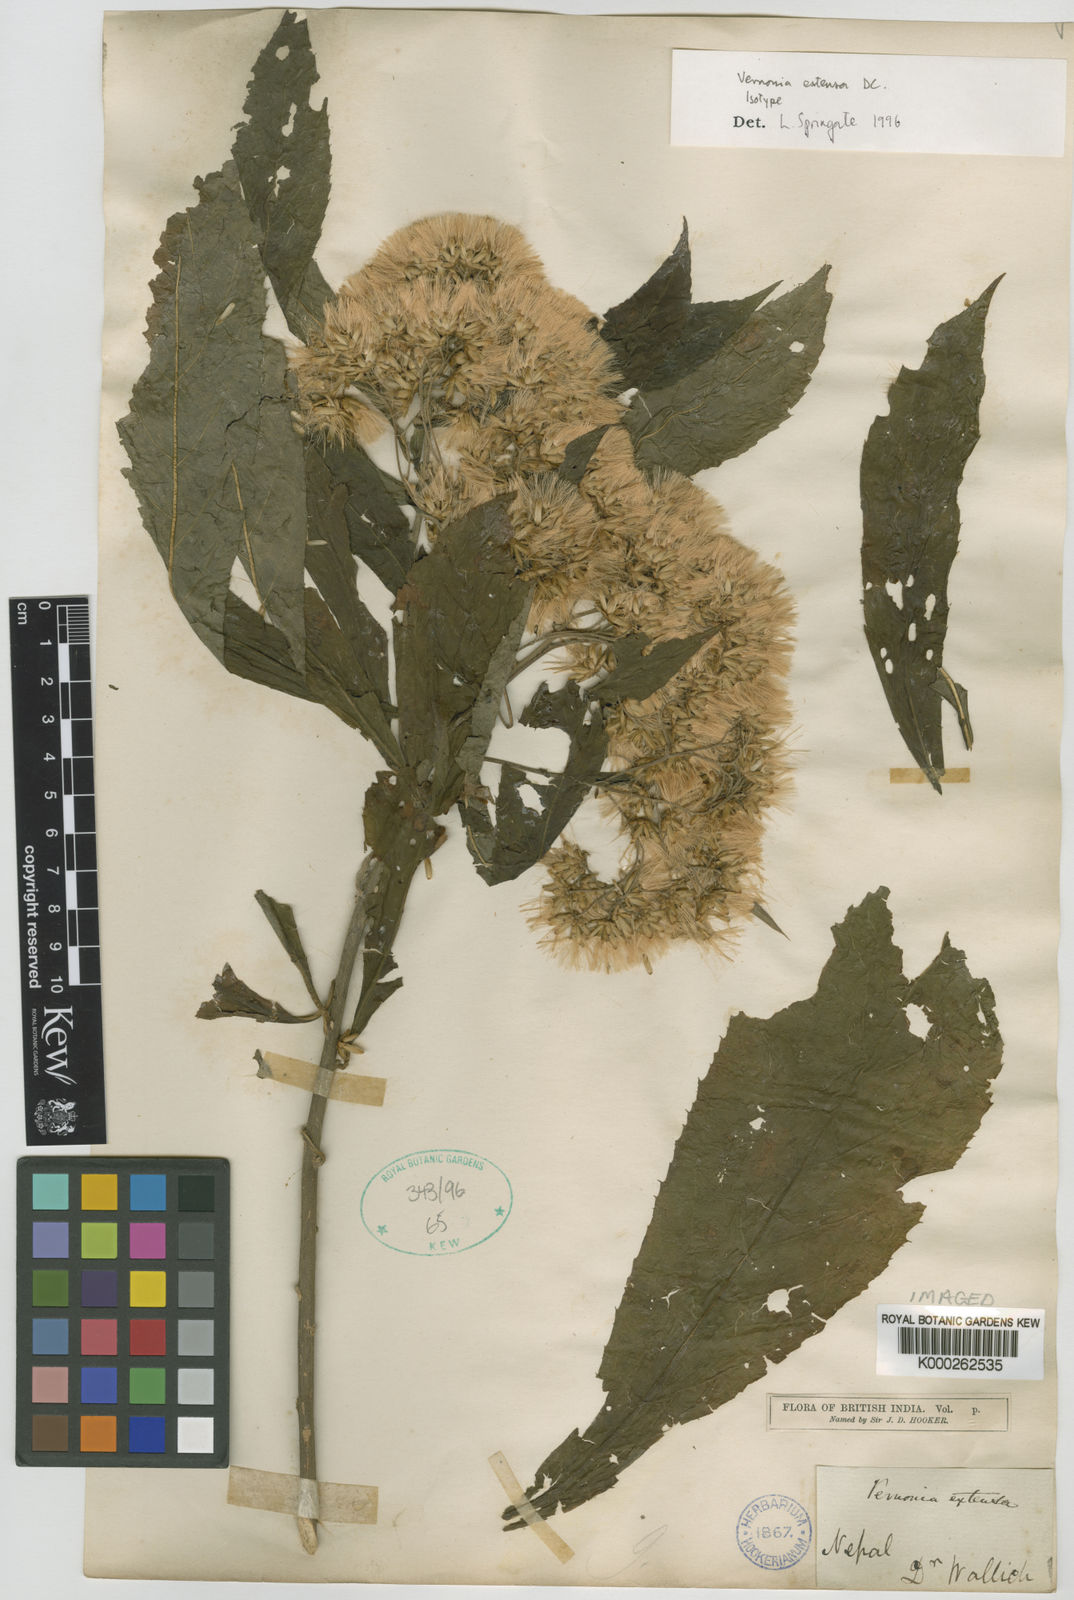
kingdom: Plantae
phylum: Tracheophyta
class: Magnoliopsida
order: Asterales
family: Asteraceae
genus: Gymnanthemum
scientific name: Gymnanthemum extensum
